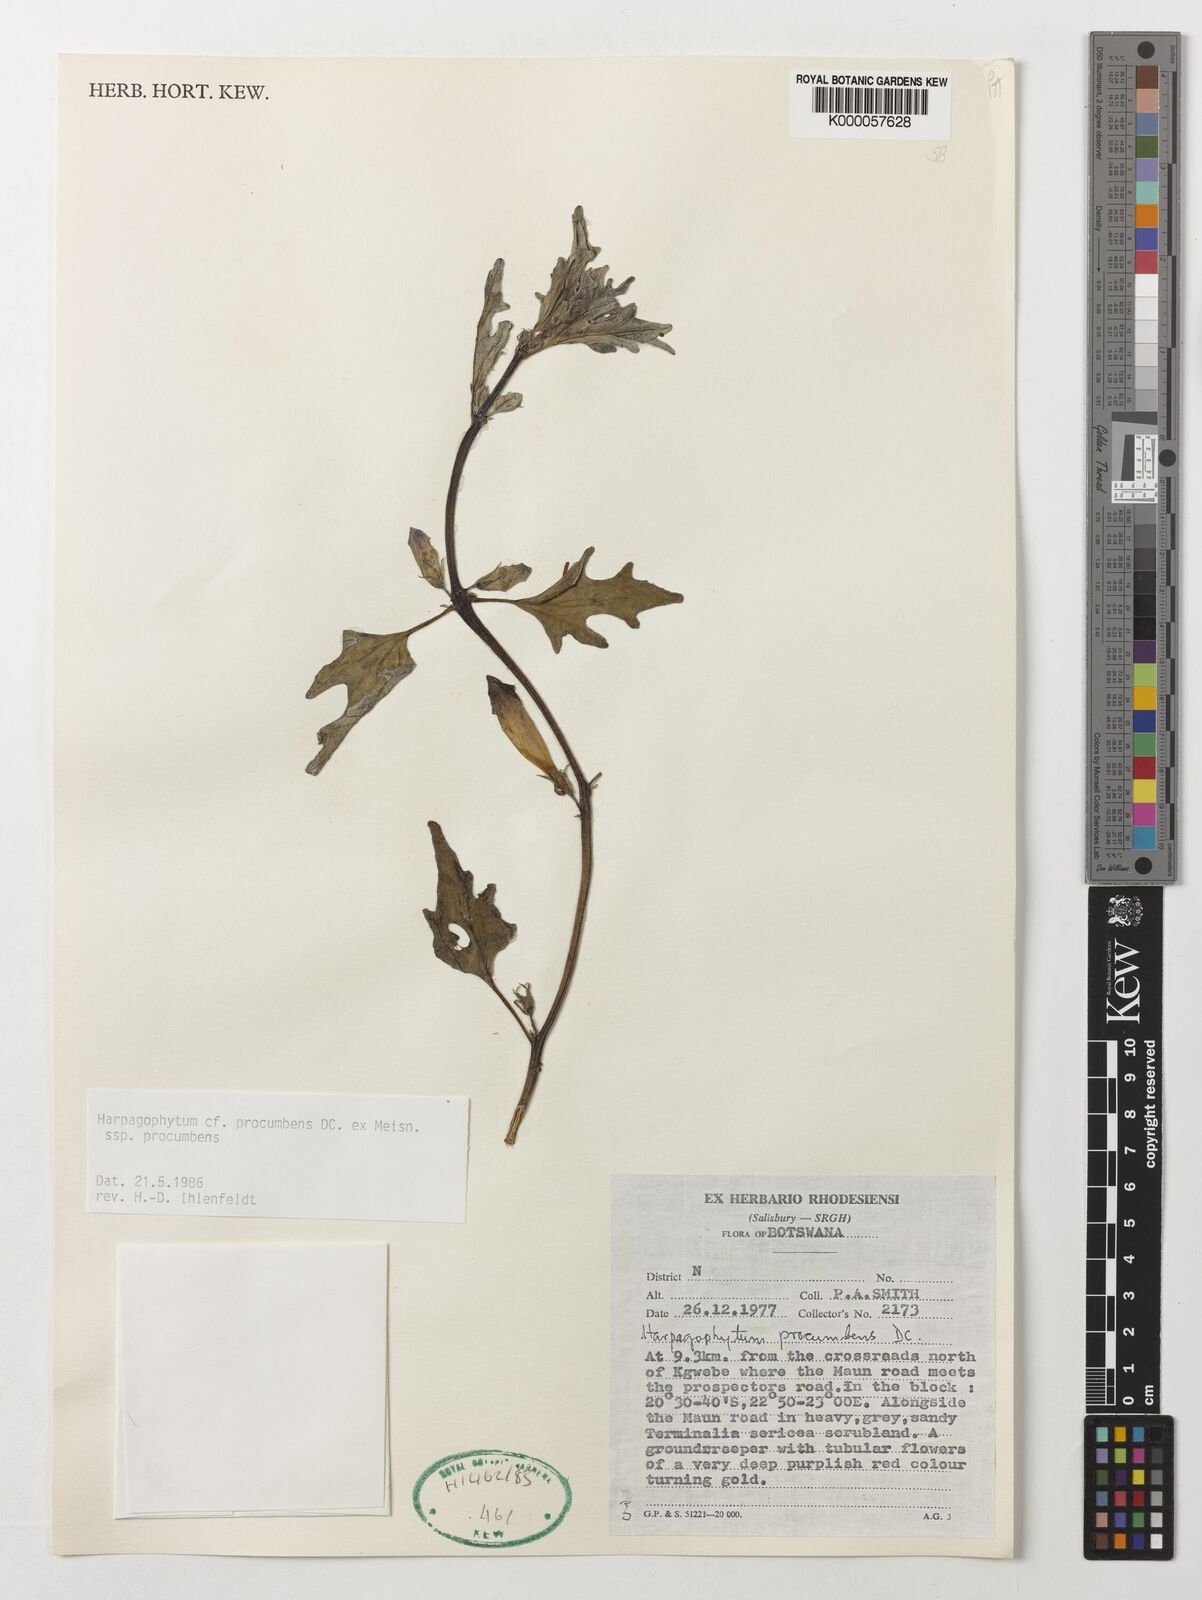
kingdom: Plantae
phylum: Tracheophyta
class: Magnoliopsida
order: Lamiales
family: Pedaliaceae
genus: Harpagophytum
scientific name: Harpagophytum procumbens
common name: Grappleplant
